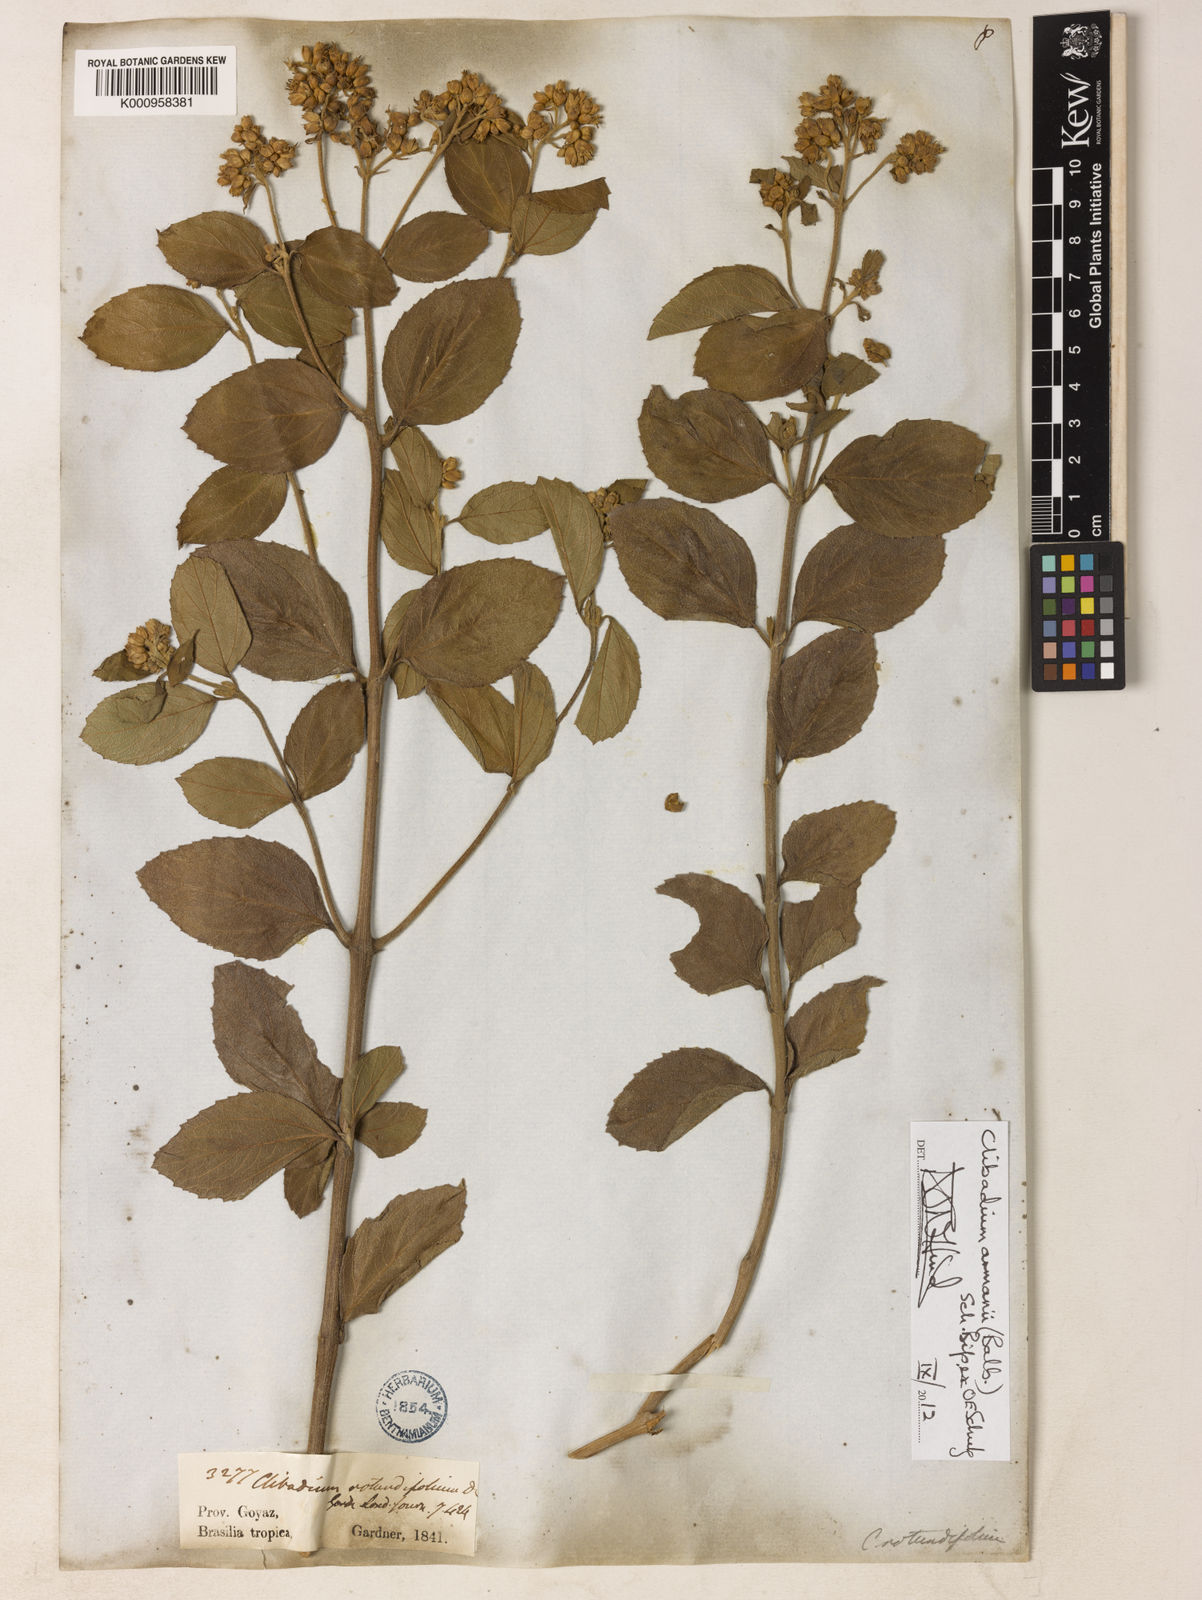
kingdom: Plantae
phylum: Tracheophyta
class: Magnoliopsida
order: Asterales
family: Asteraceae
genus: Clibadium
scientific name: Clibadium armanii
